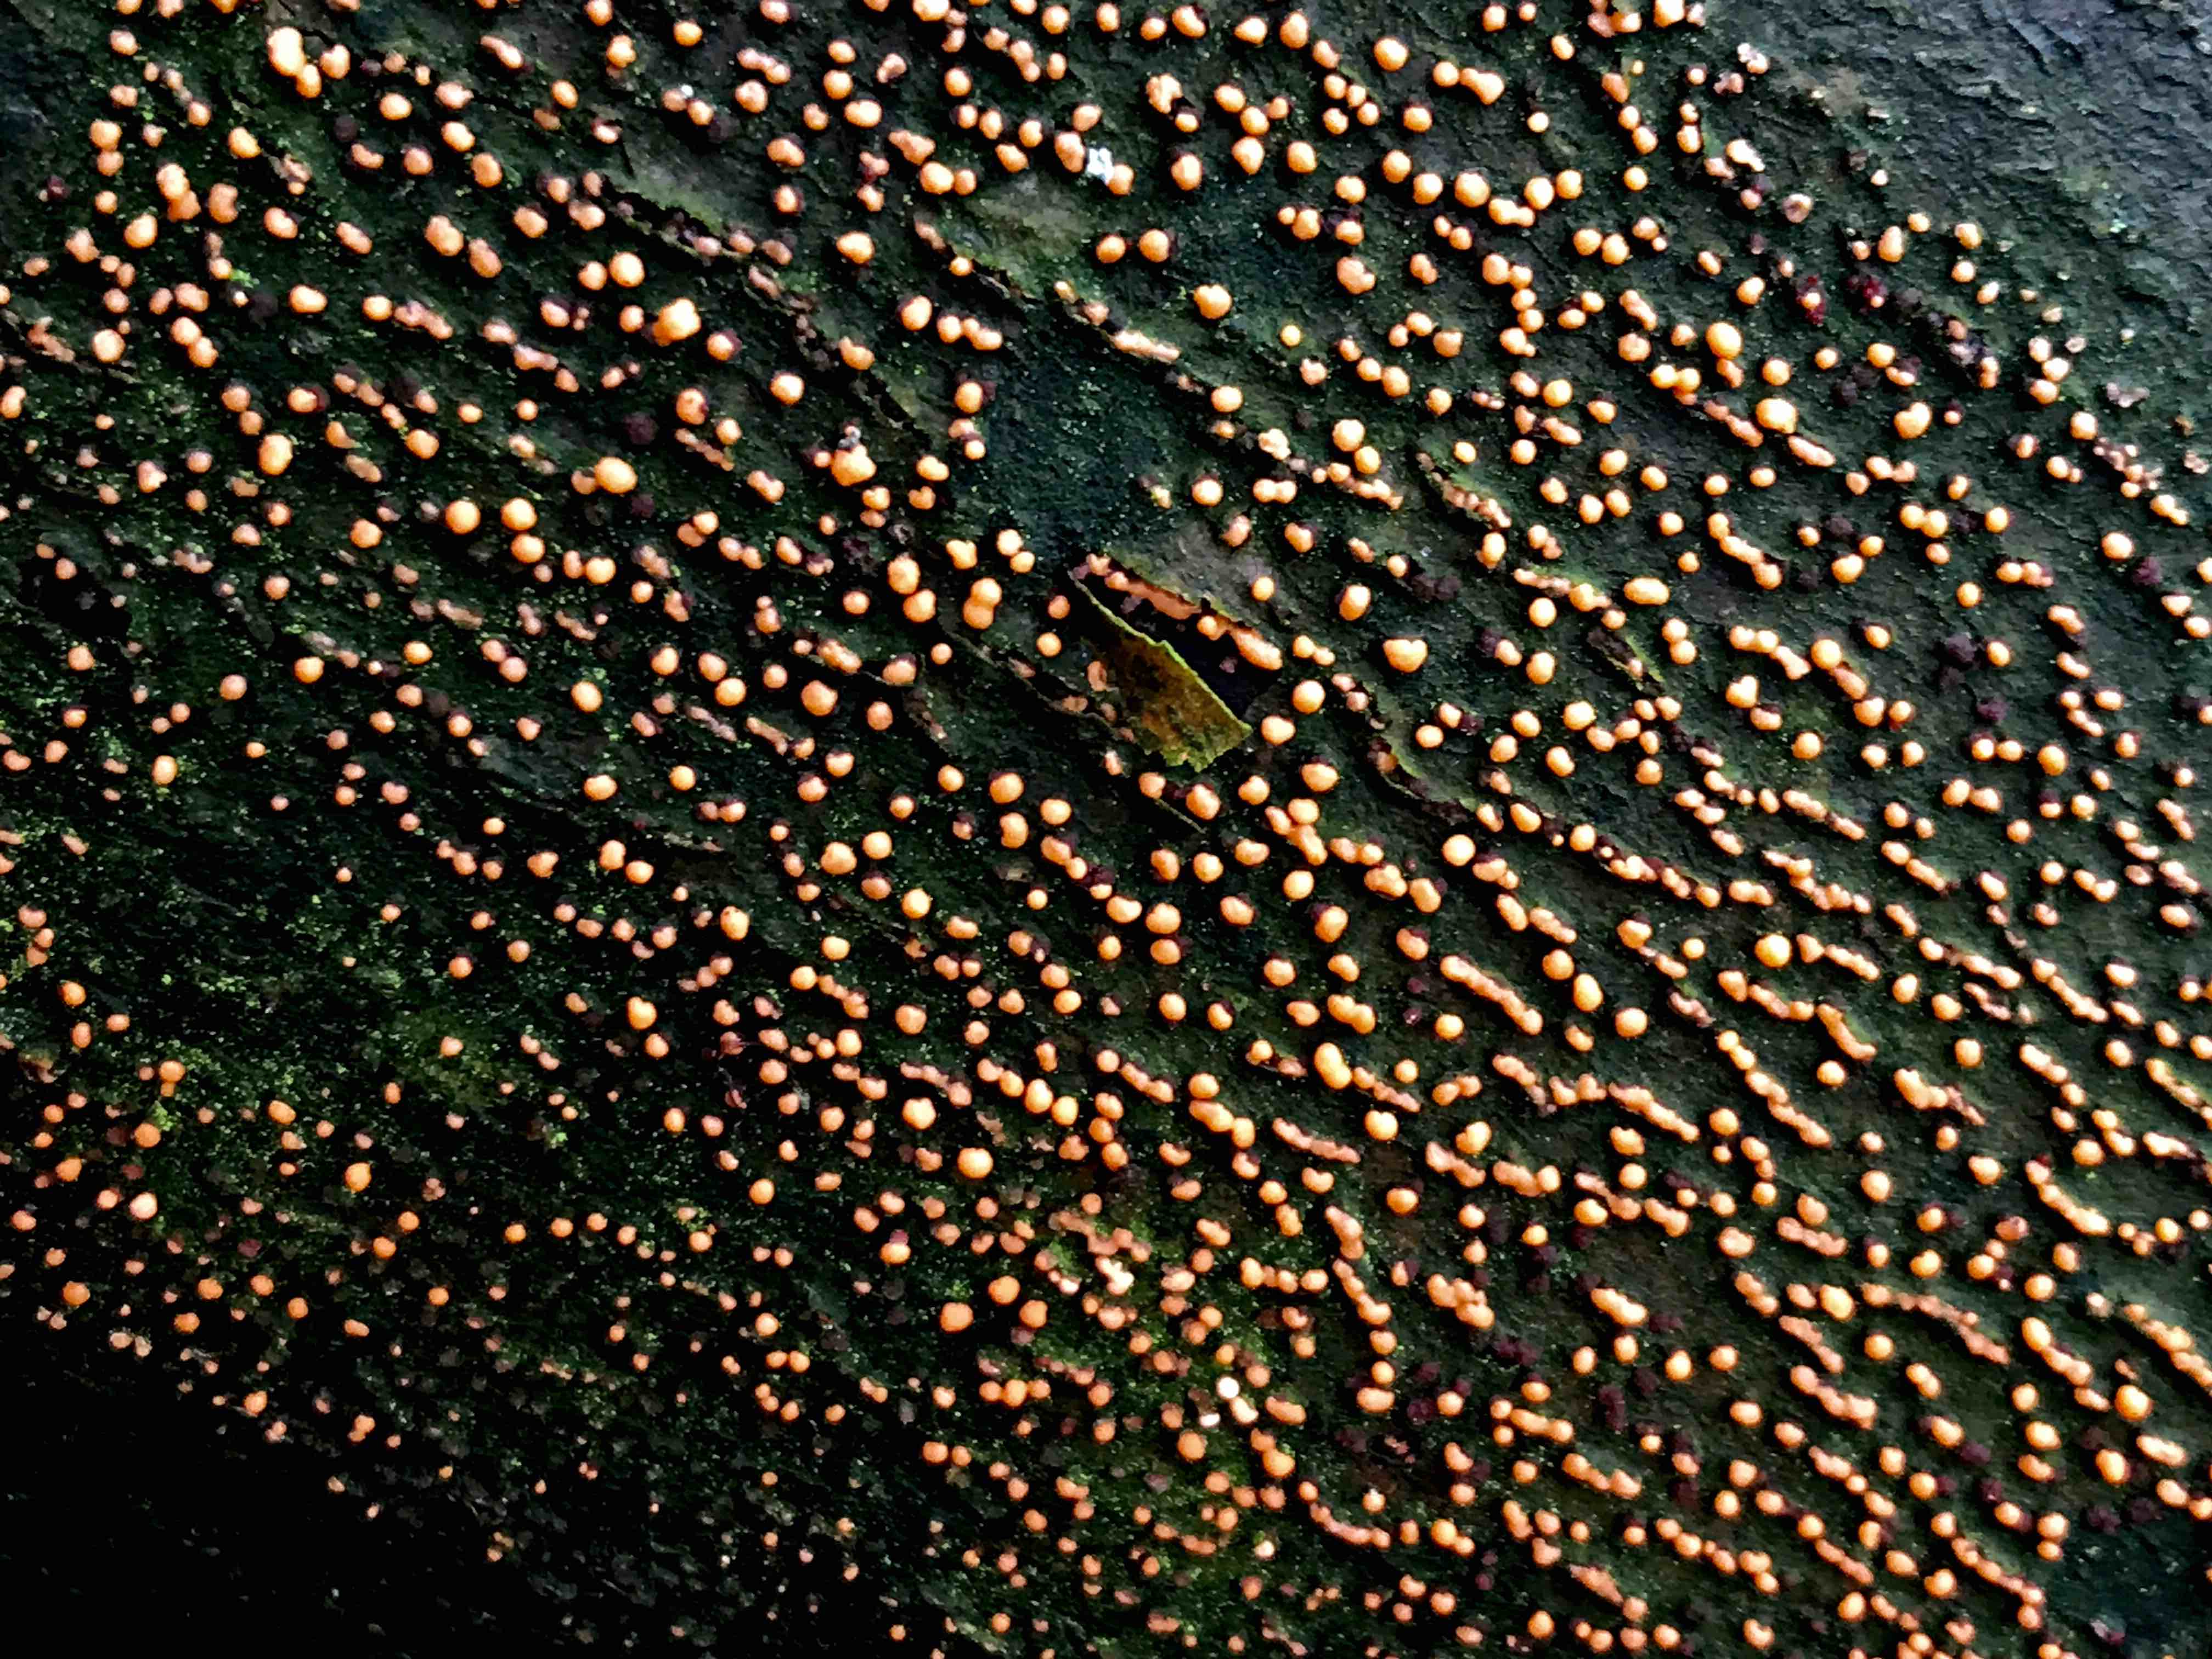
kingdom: Fungi
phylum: Ascomycota
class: Sordariomycetes
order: Hypocreales
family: Nectriaceae
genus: Nectria
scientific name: Nectria cinnabarina
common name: almindelig cinnobersvamp
